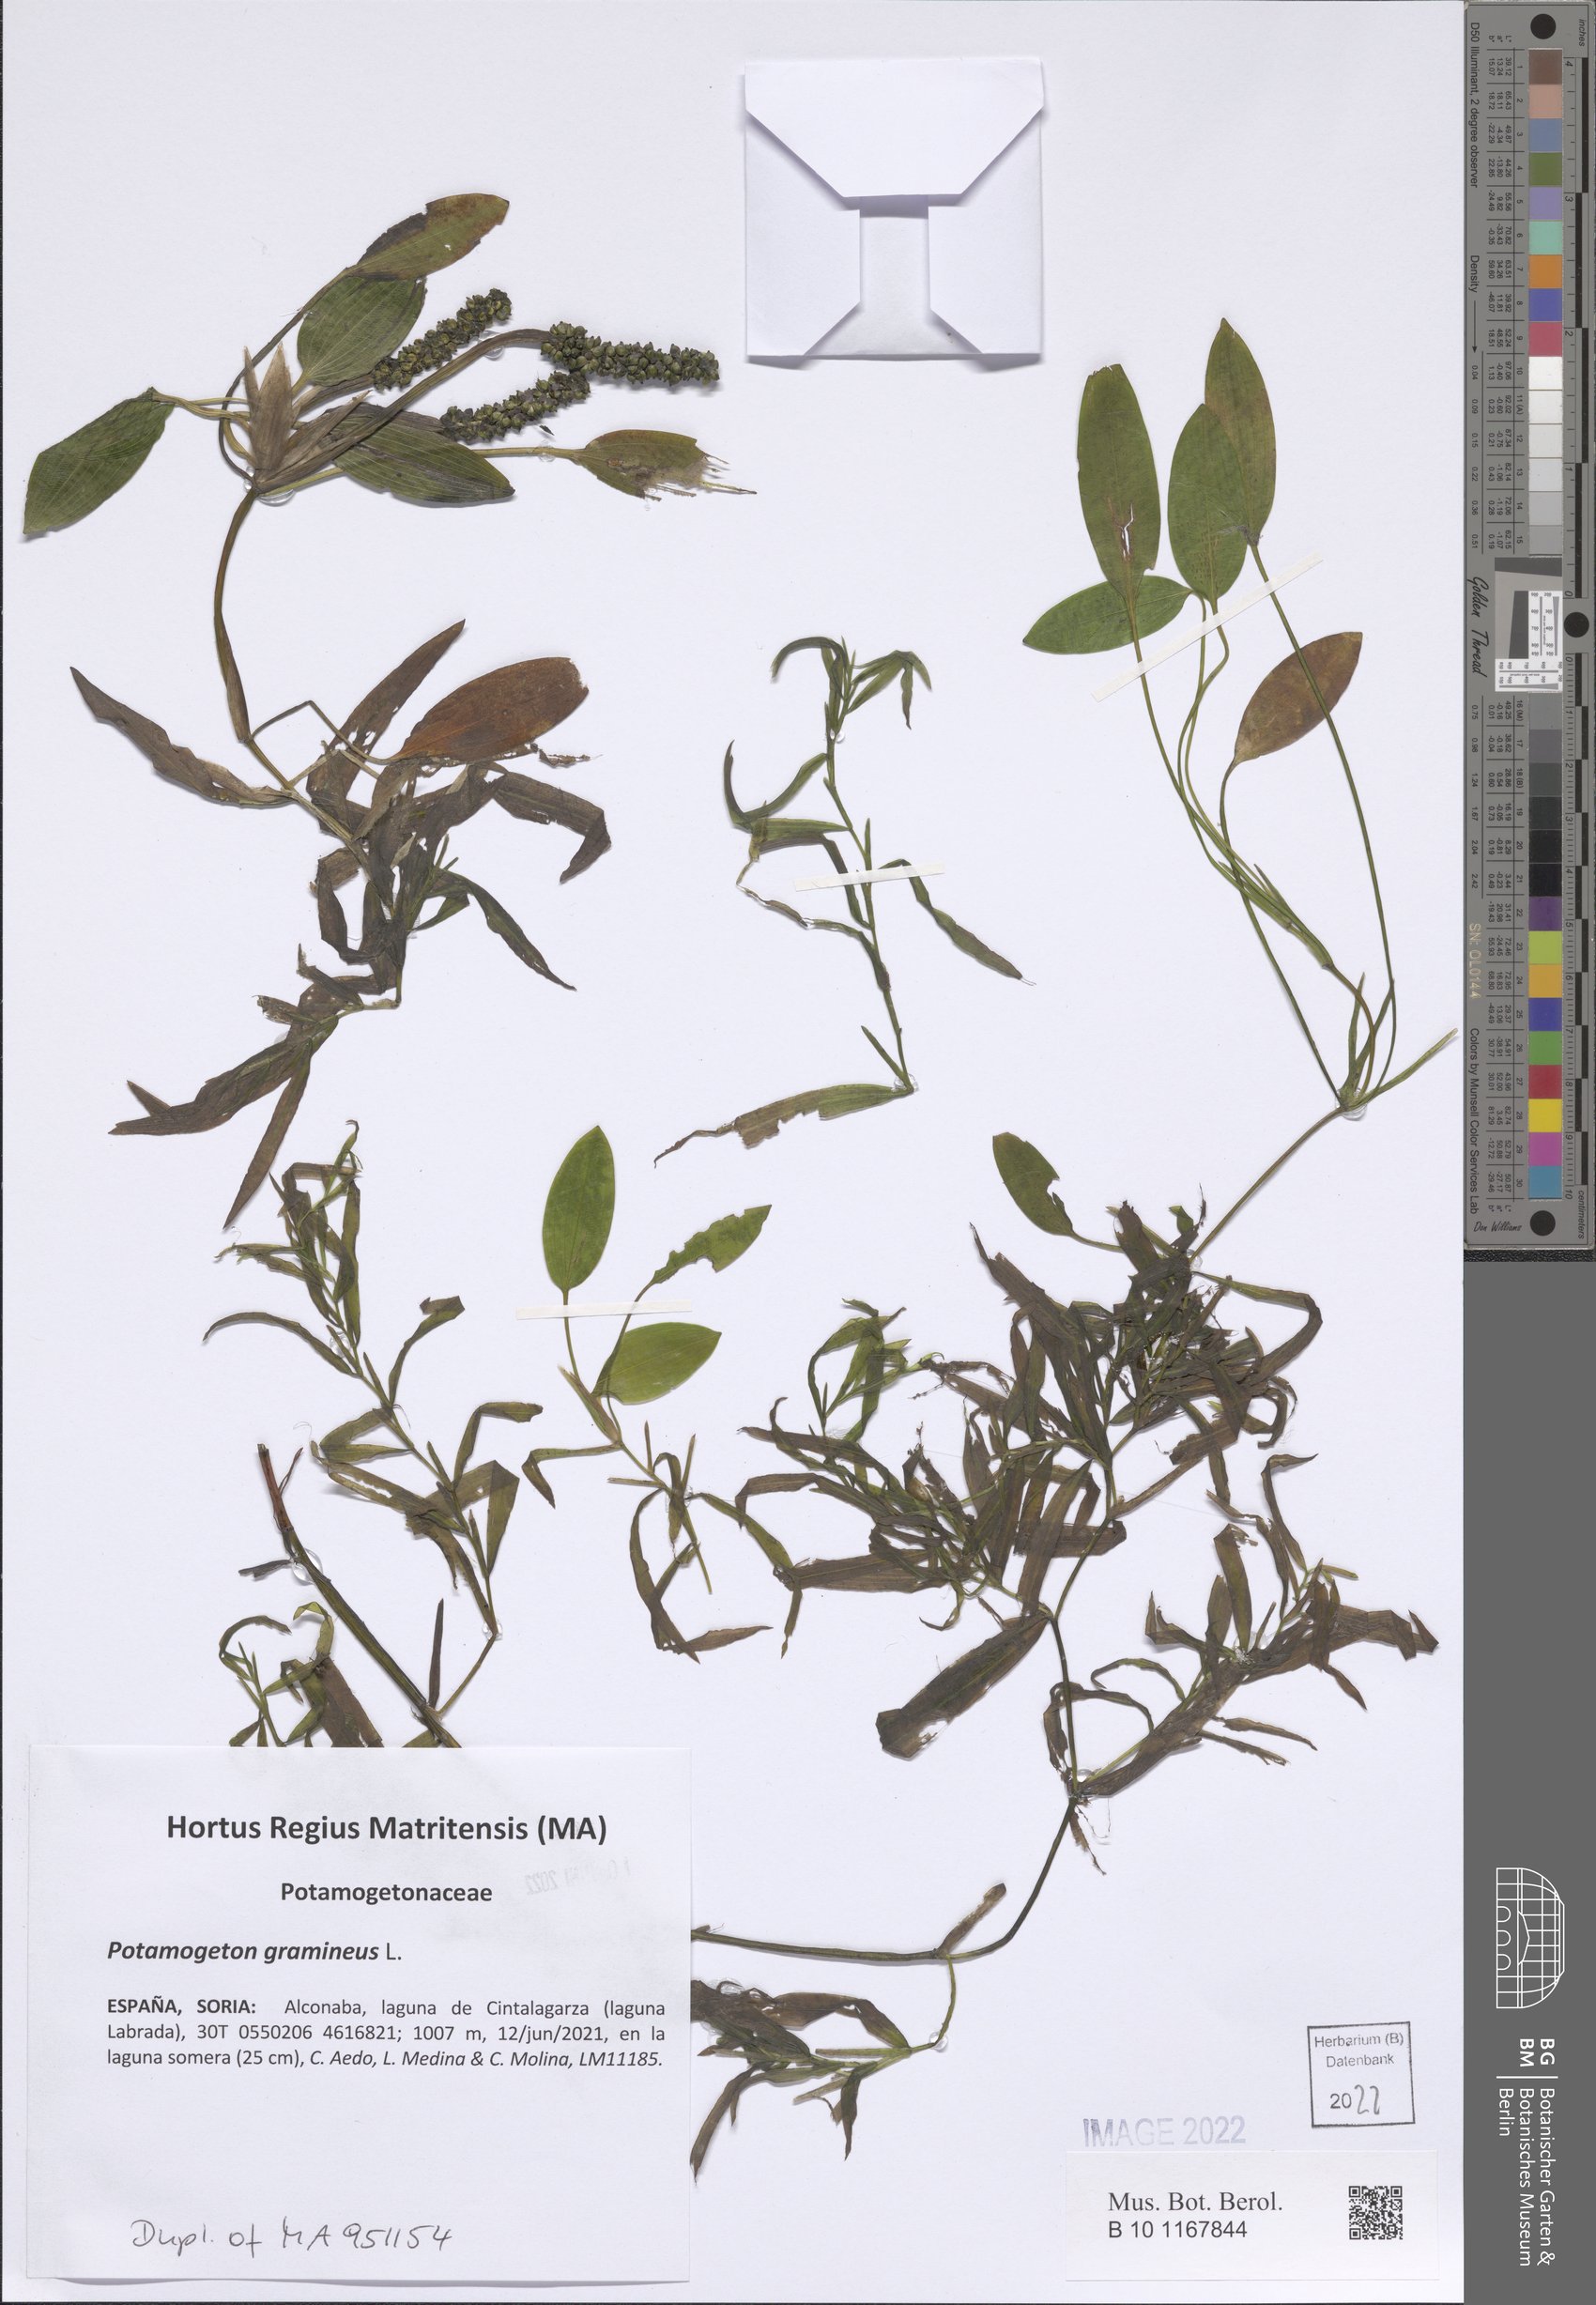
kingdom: Plantae
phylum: Tracheophyta
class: Liliopsida
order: Alismatales
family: Potamogetonaceae
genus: Potamogeton
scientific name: Potamogeton gramineus
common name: Various-leaved pondweed
